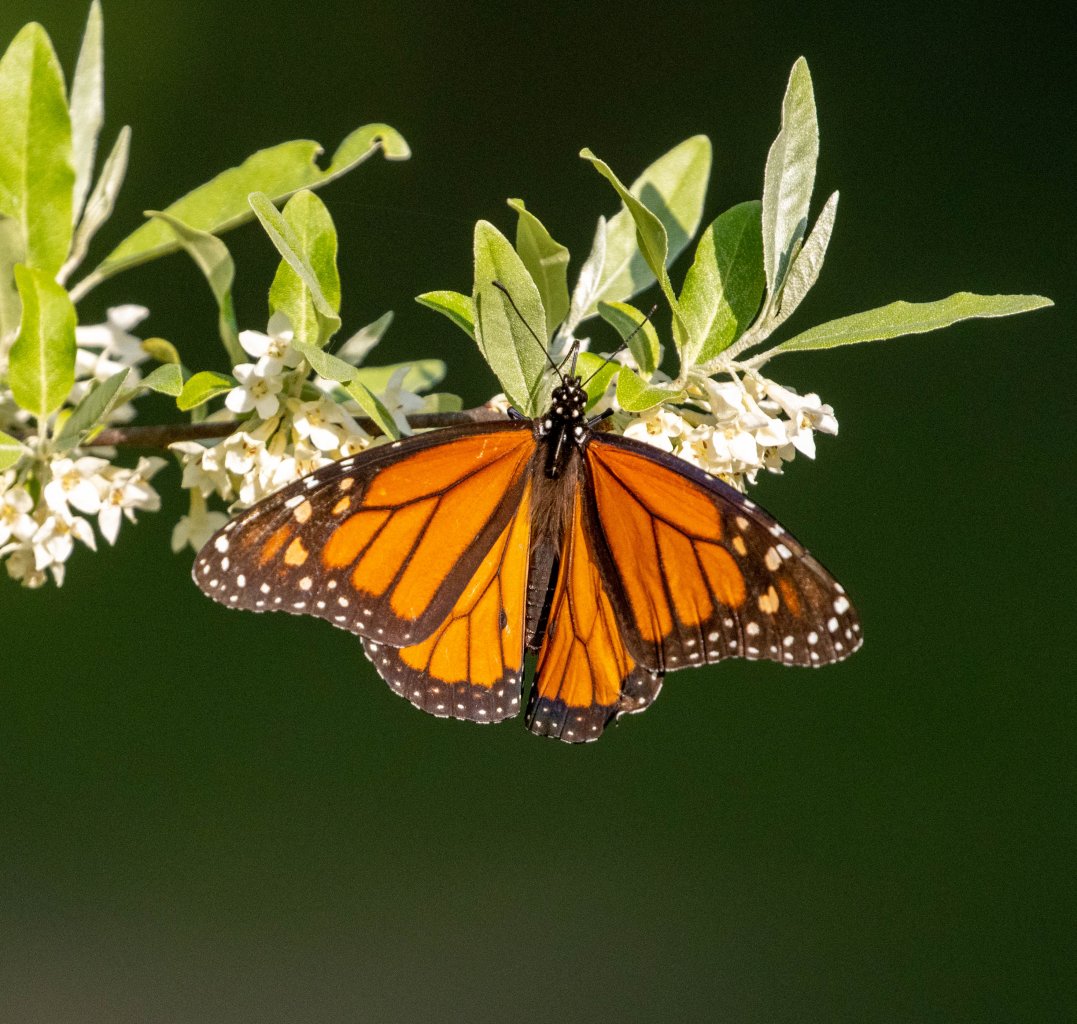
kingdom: Animalia
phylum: Arthropoda
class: Insecta
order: Lepidoptera
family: Nymphalidae
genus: Danaus
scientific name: Danaus plexippus
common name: Monarch
